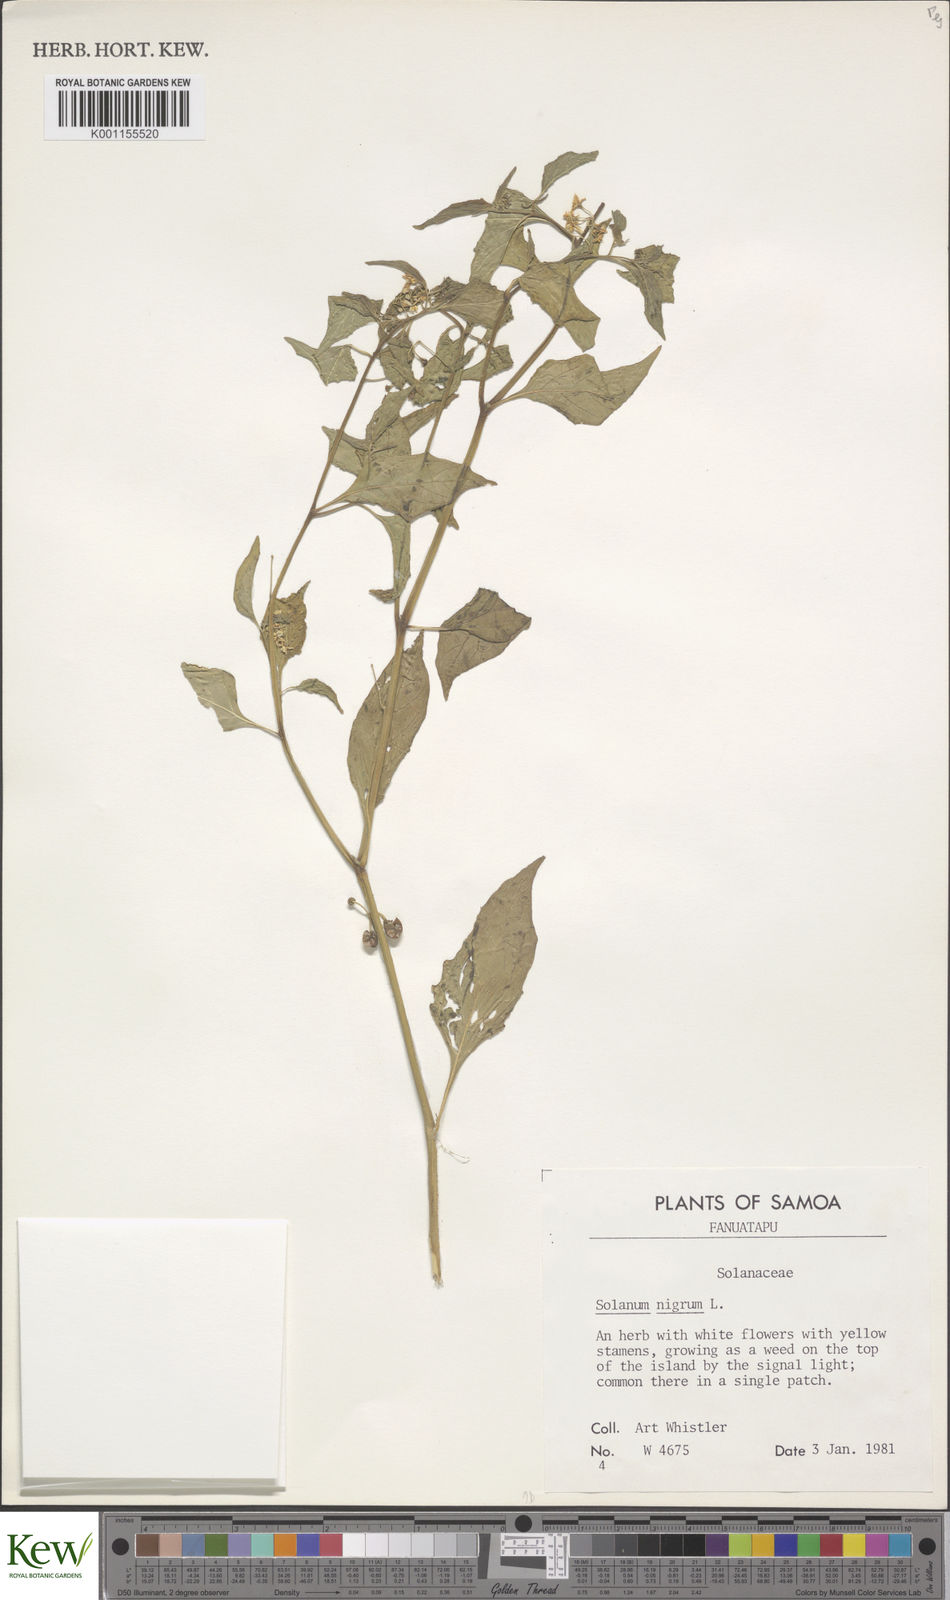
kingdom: Plantae
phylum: Tracheophyta
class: Magnoliopsida
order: Solanales
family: Solanaceae
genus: Solanum
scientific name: Solanum americanum
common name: American black nightshade
